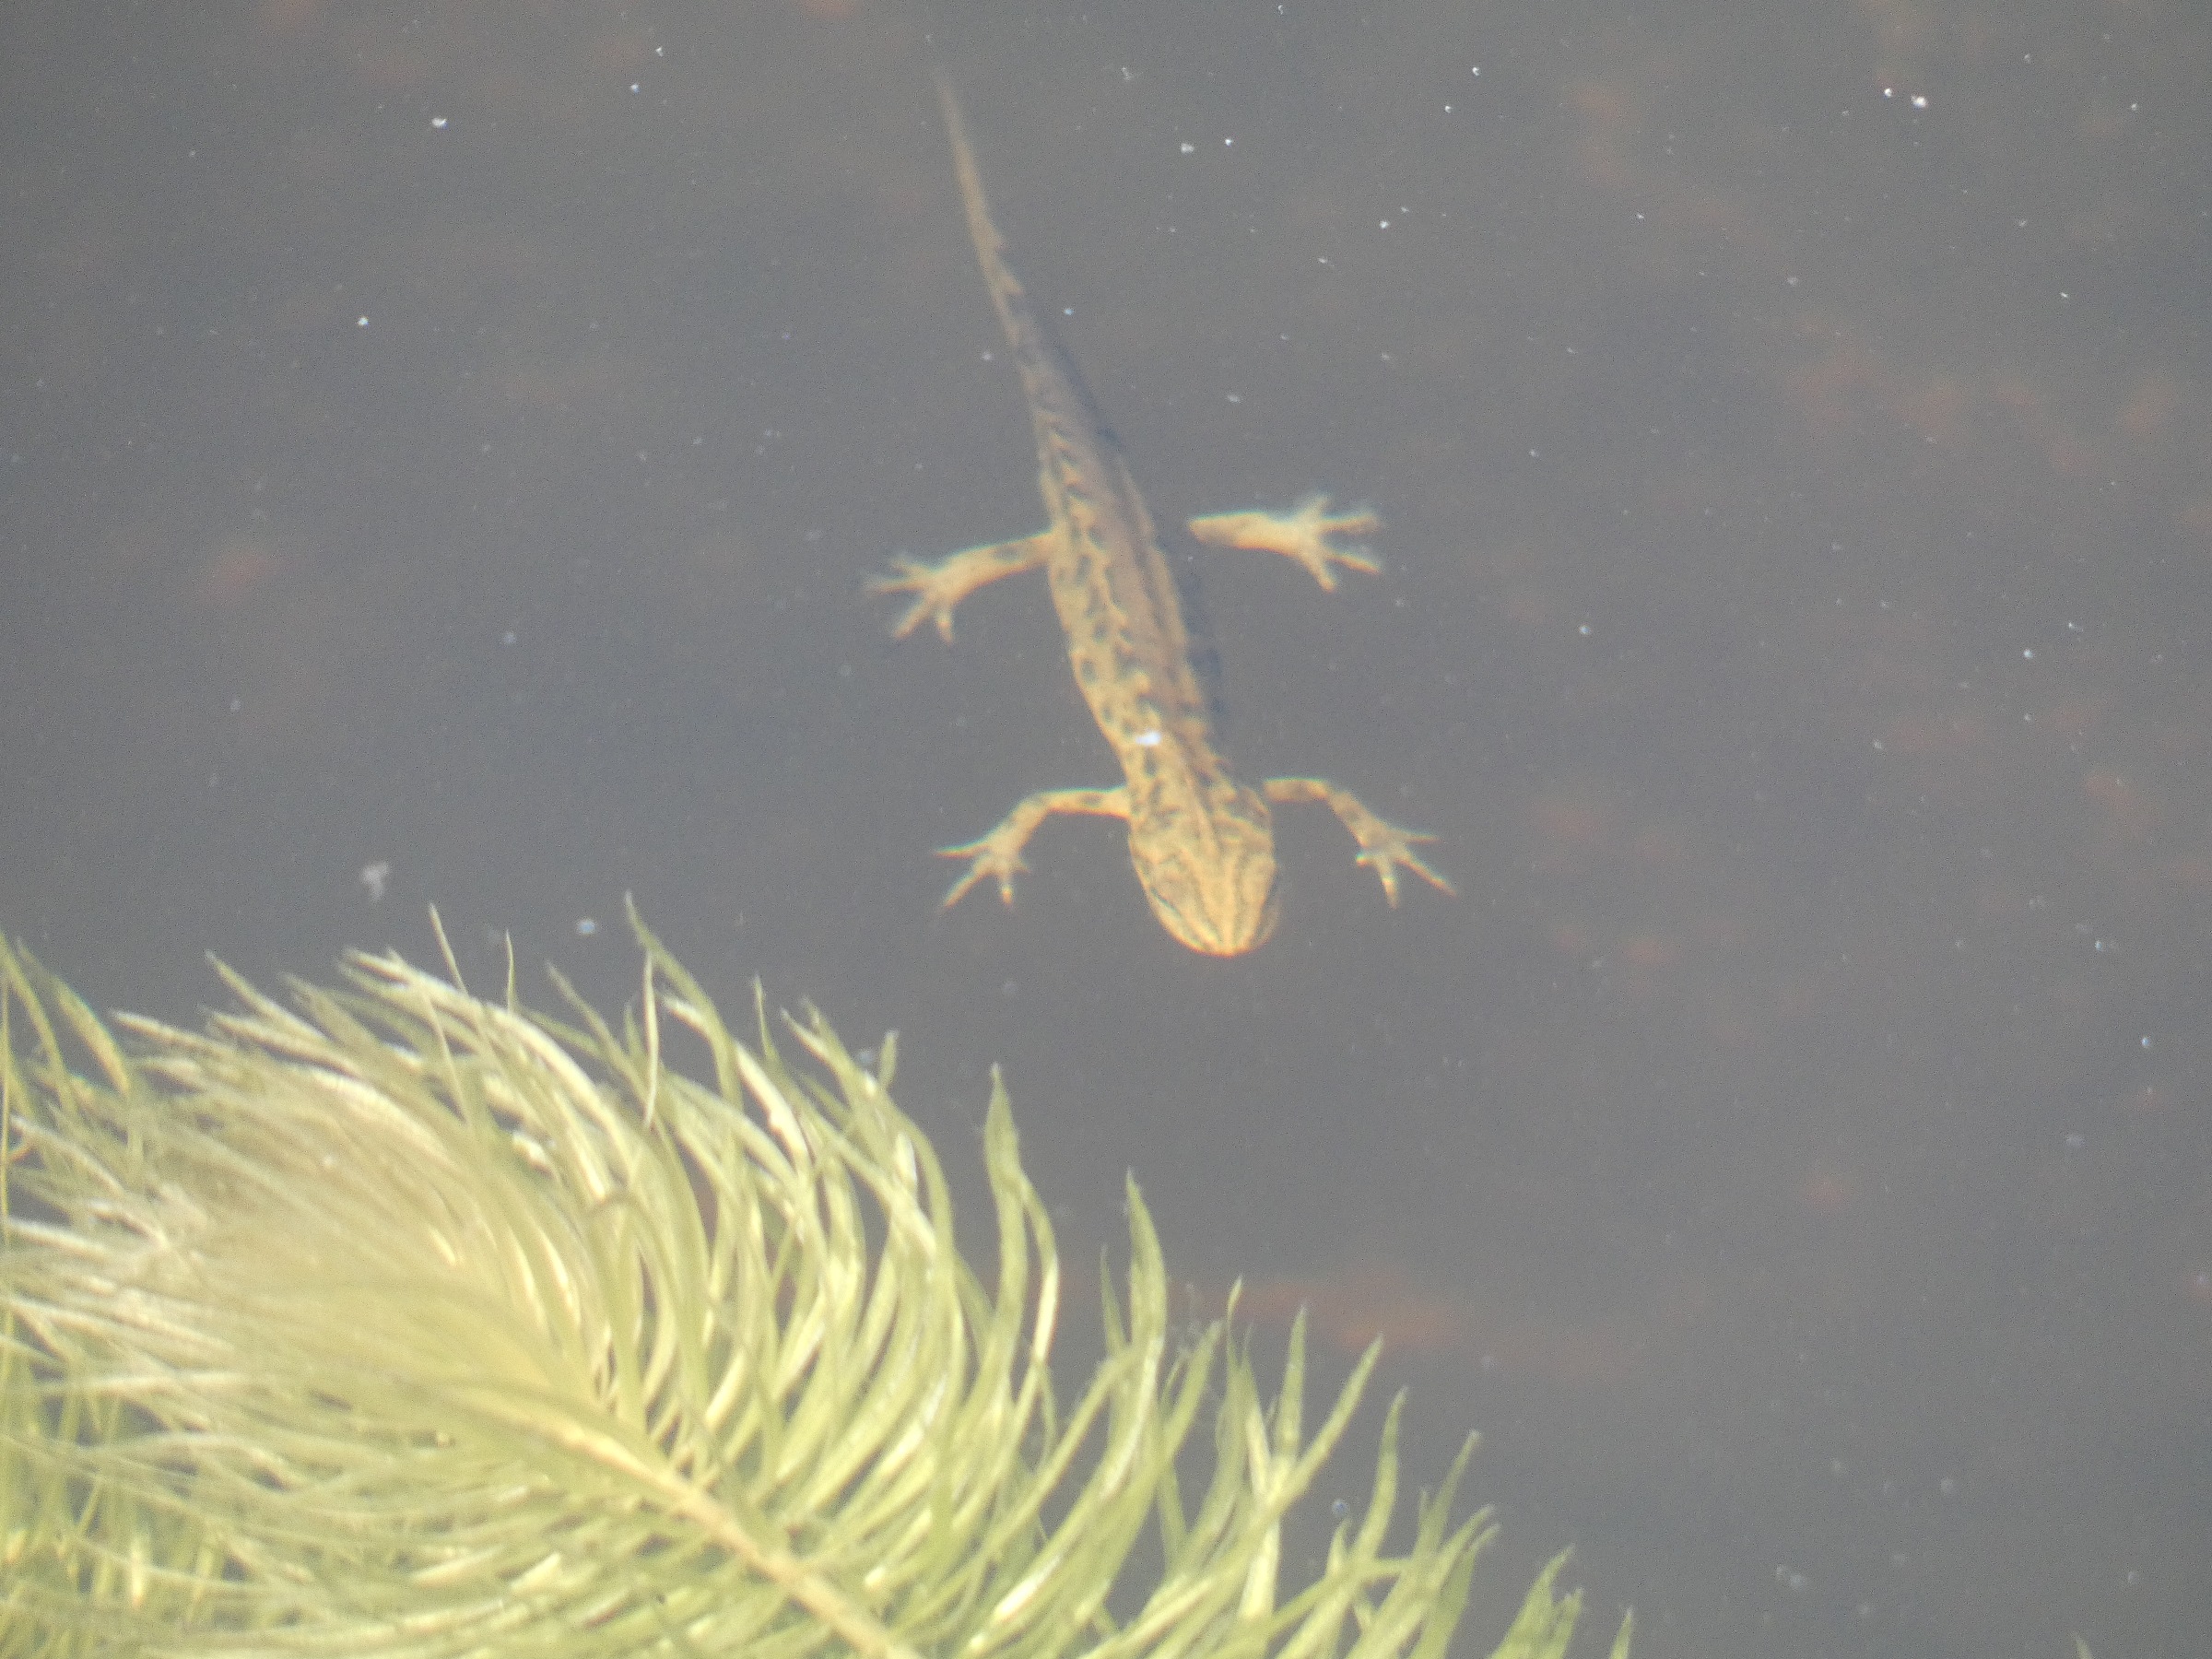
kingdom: Animalia
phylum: Chordata
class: Amphibia
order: Caudata
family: Salamandridae
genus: Lissotriton
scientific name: Lissotriton vulgaris
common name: Lille vandsalamander
